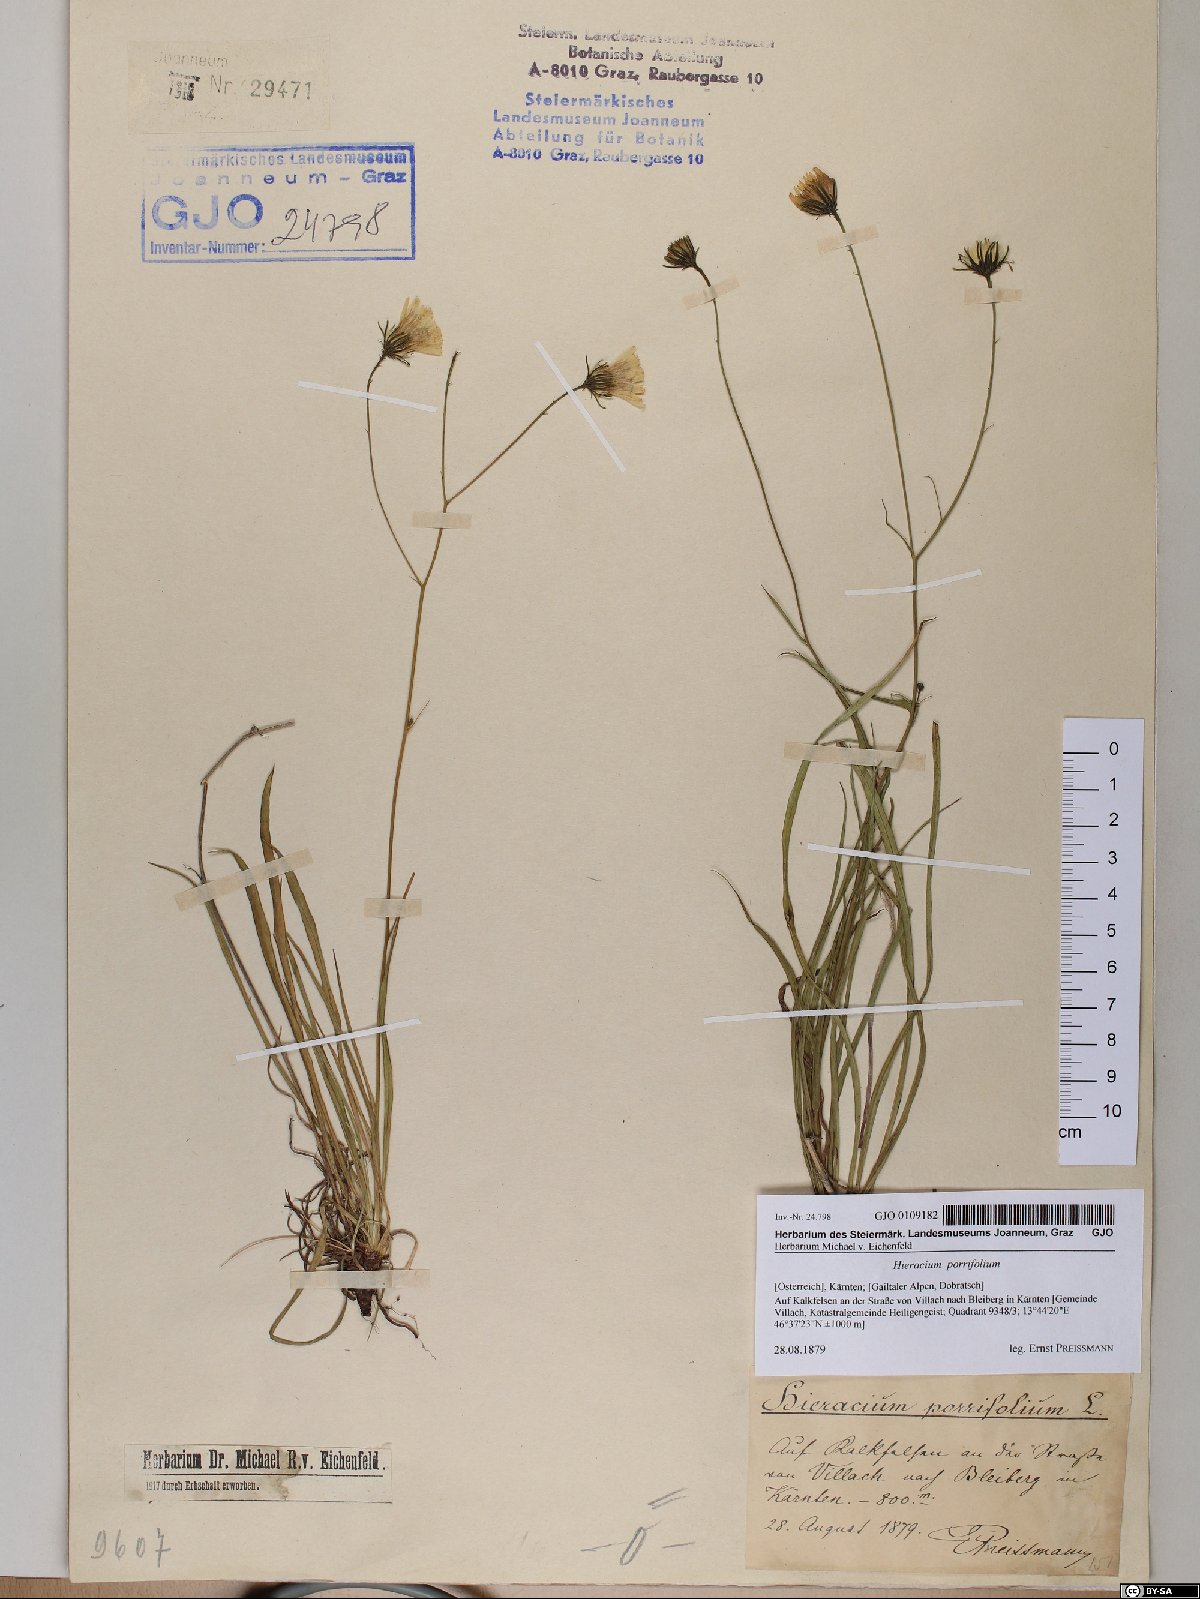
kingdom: Plantae
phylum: Tracheophyta
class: Magnoliopsida
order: Asterales
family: Asteraceae
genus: Hieracium
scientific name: Hieracium porrifolium
